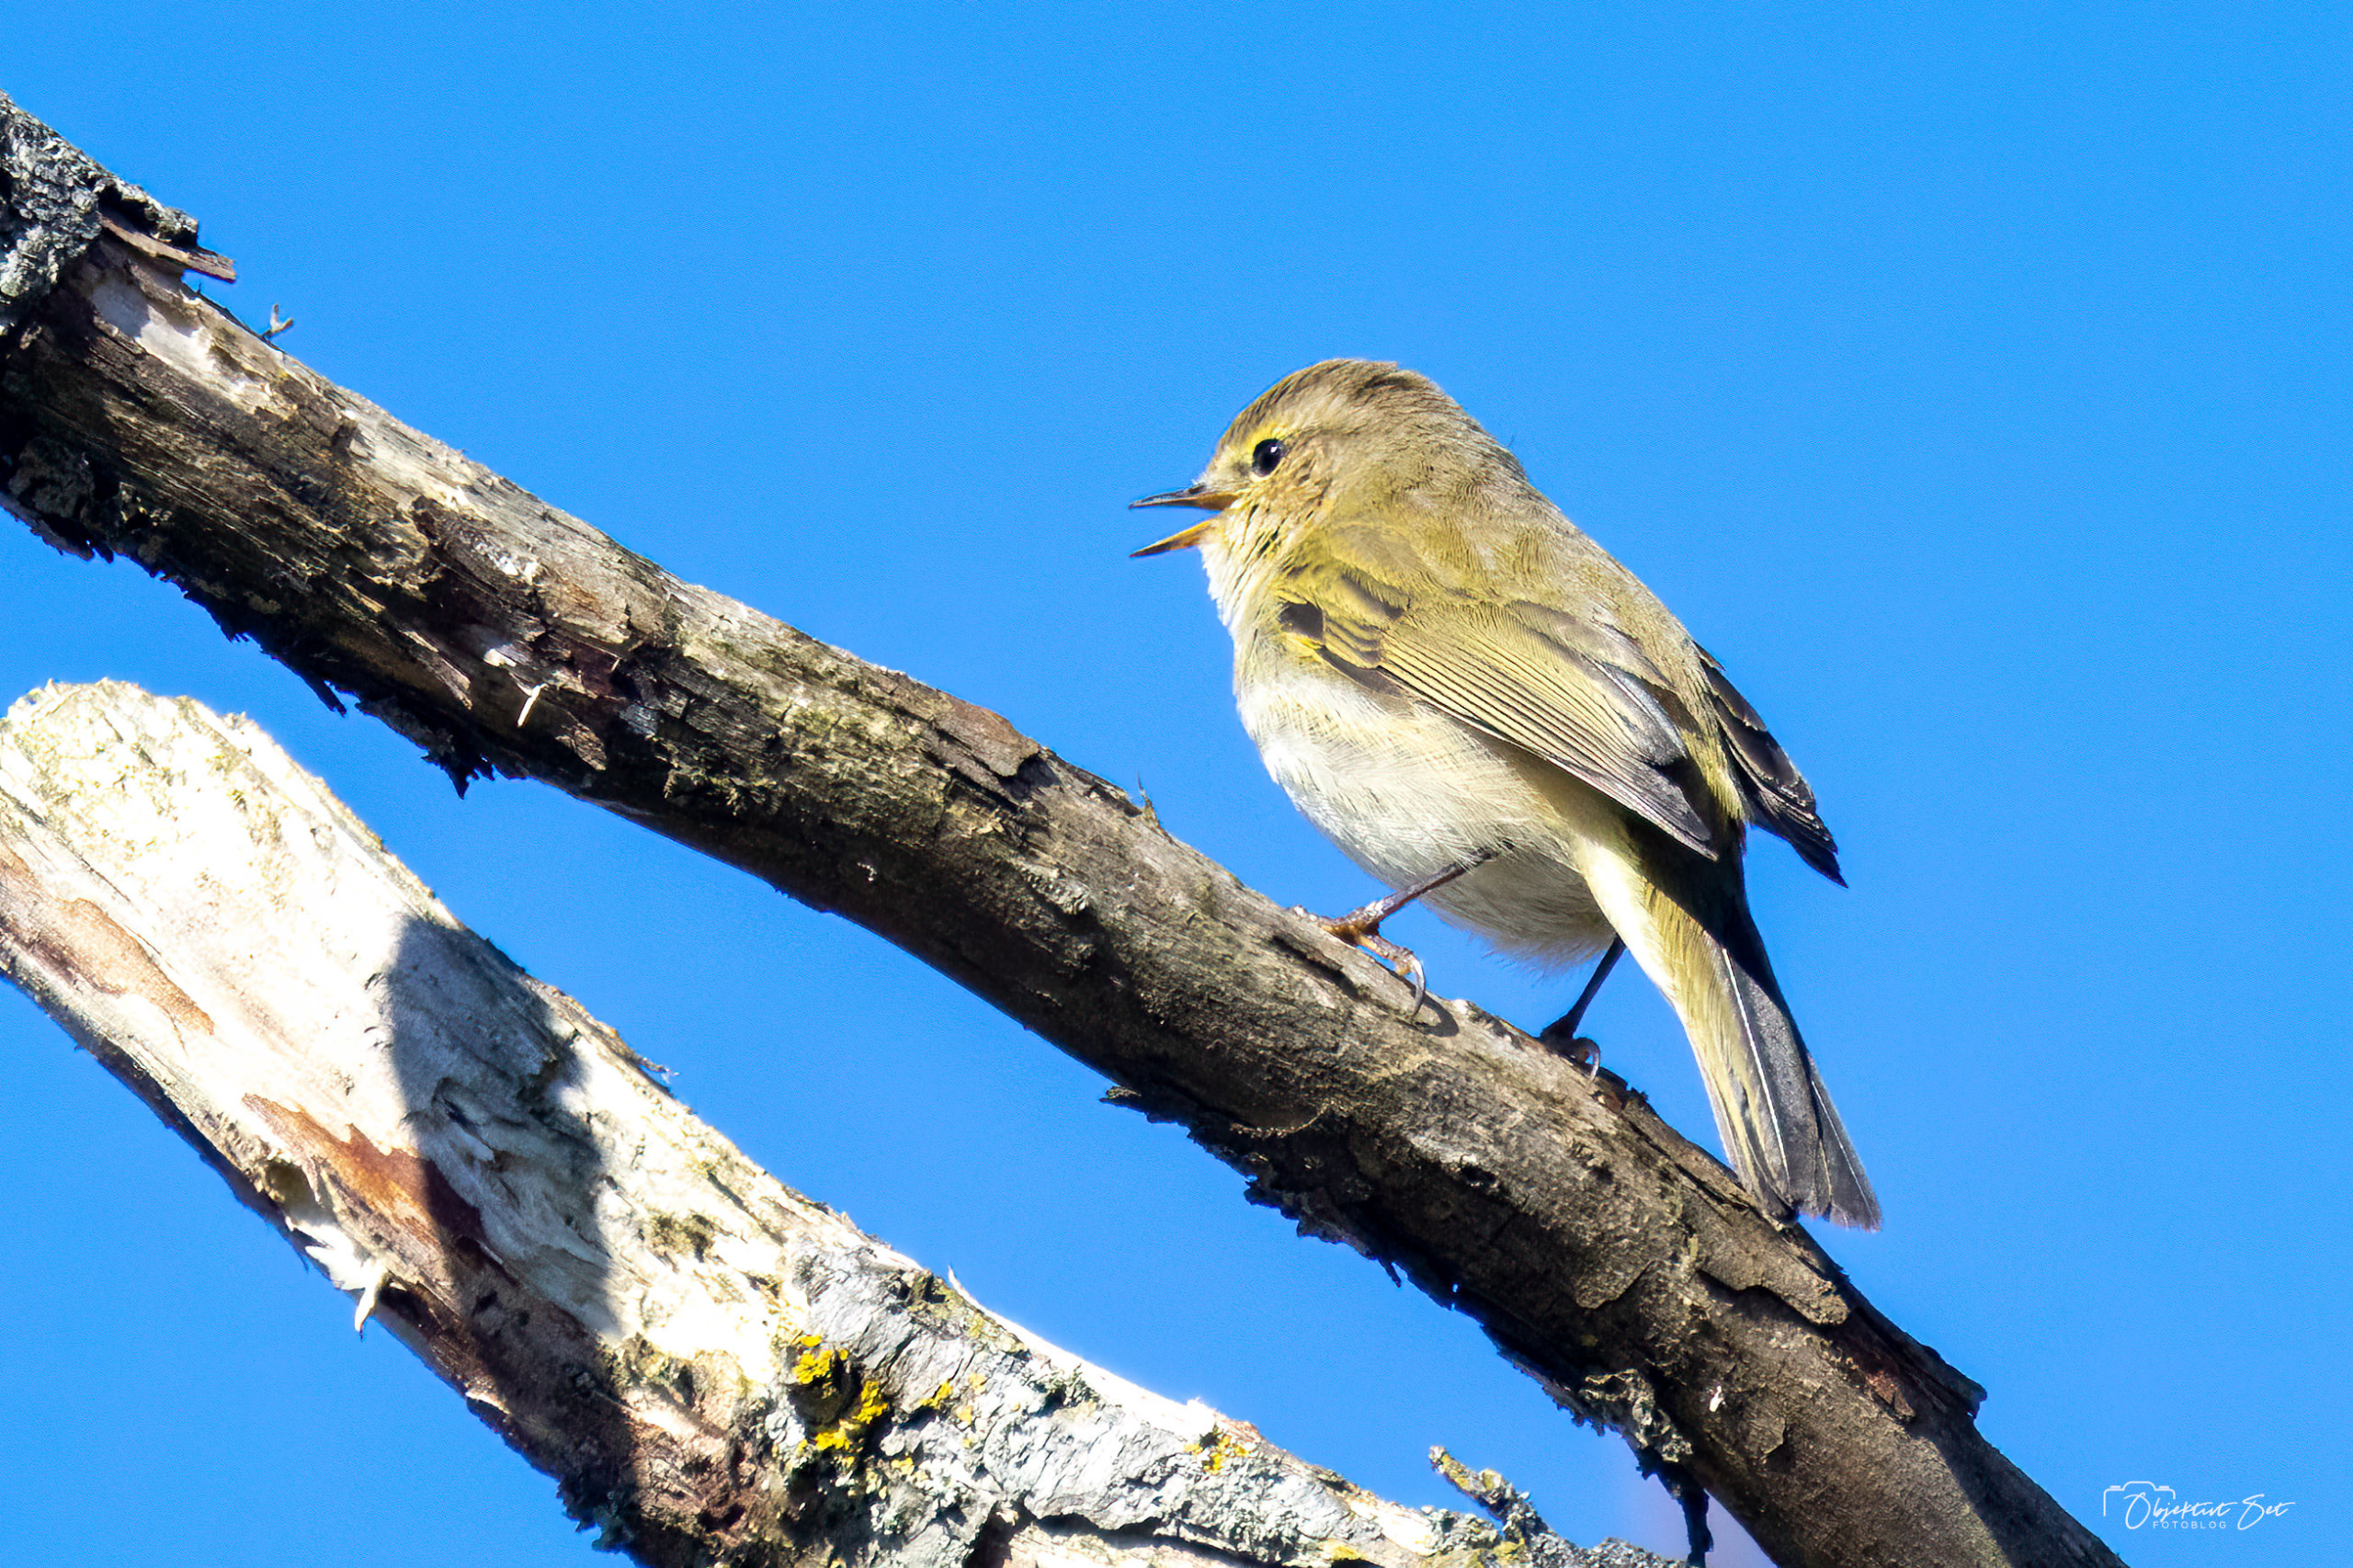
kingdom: Animalia
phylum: Chordata
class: Aves
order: Passeriformes
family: Phylloscopidae
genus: Phylloscopus
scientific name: Phylloscopus collybita
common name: Gransanger
